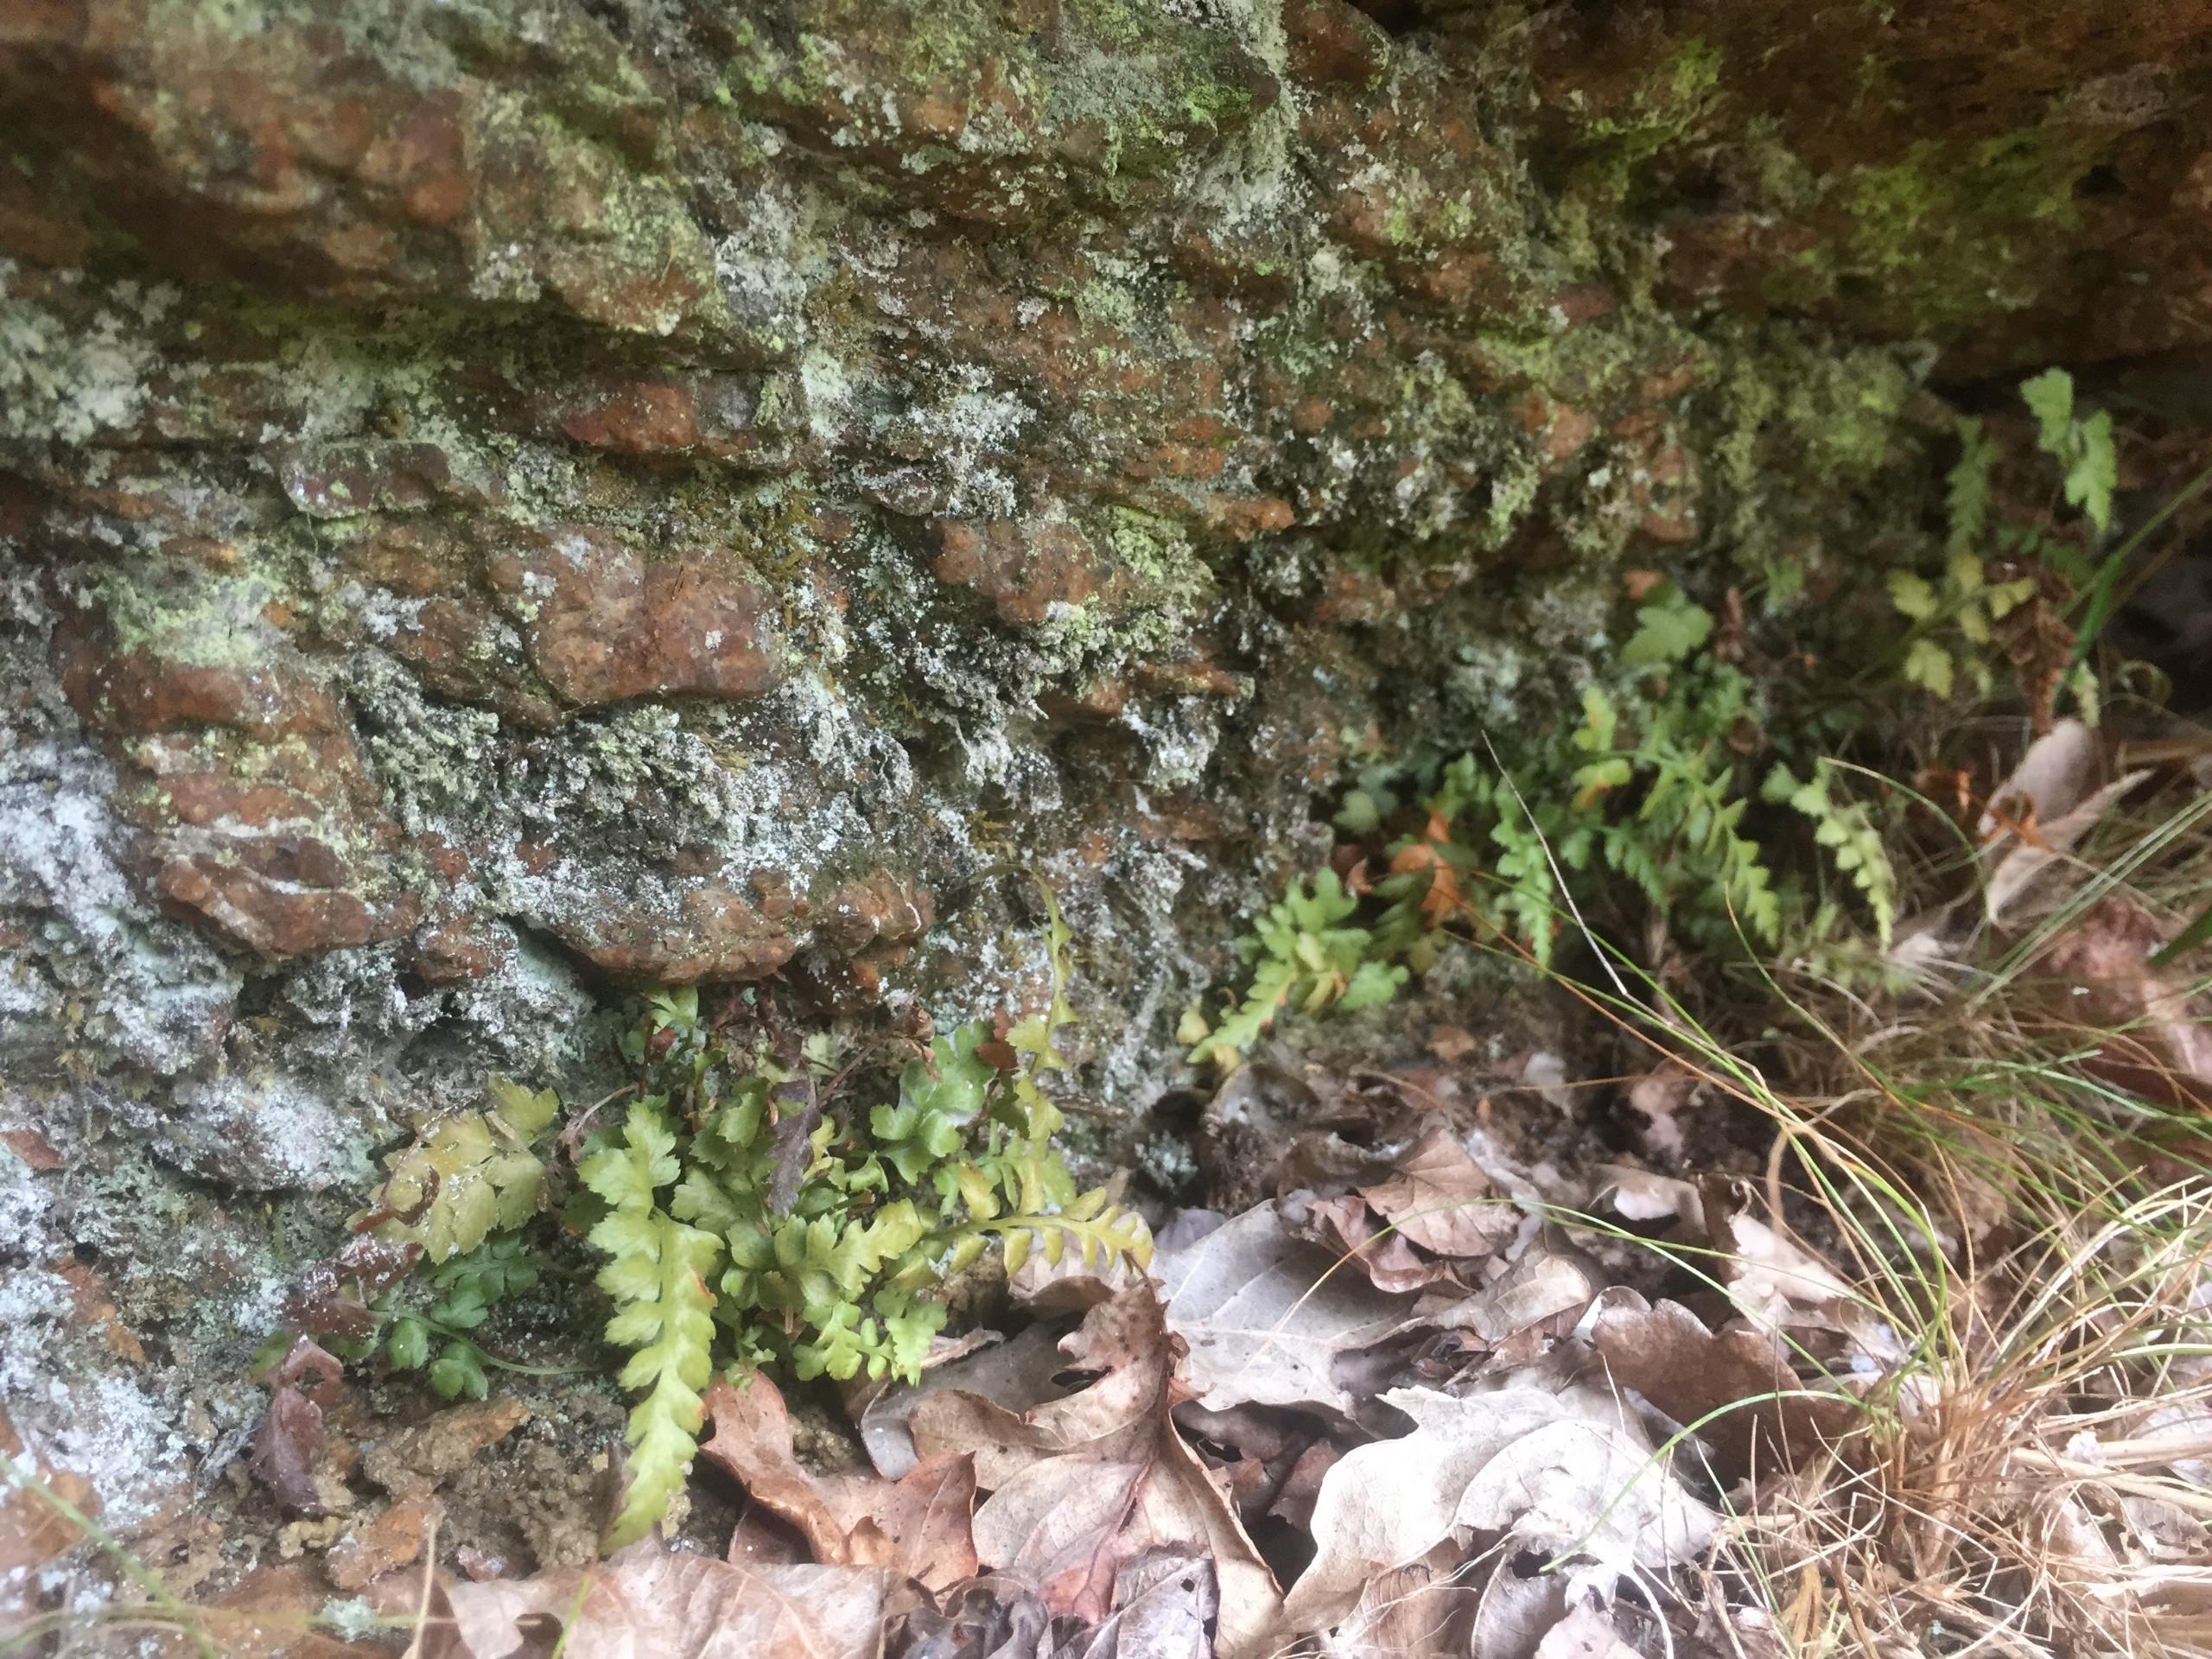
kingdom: Plantae
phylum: Tracheophyta
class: Polypodiopsida
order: Polypodiales
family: Aspleniaceae
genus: Asplenium
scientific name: Asplenium adiantum-nigrum
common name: Sort radeløv
